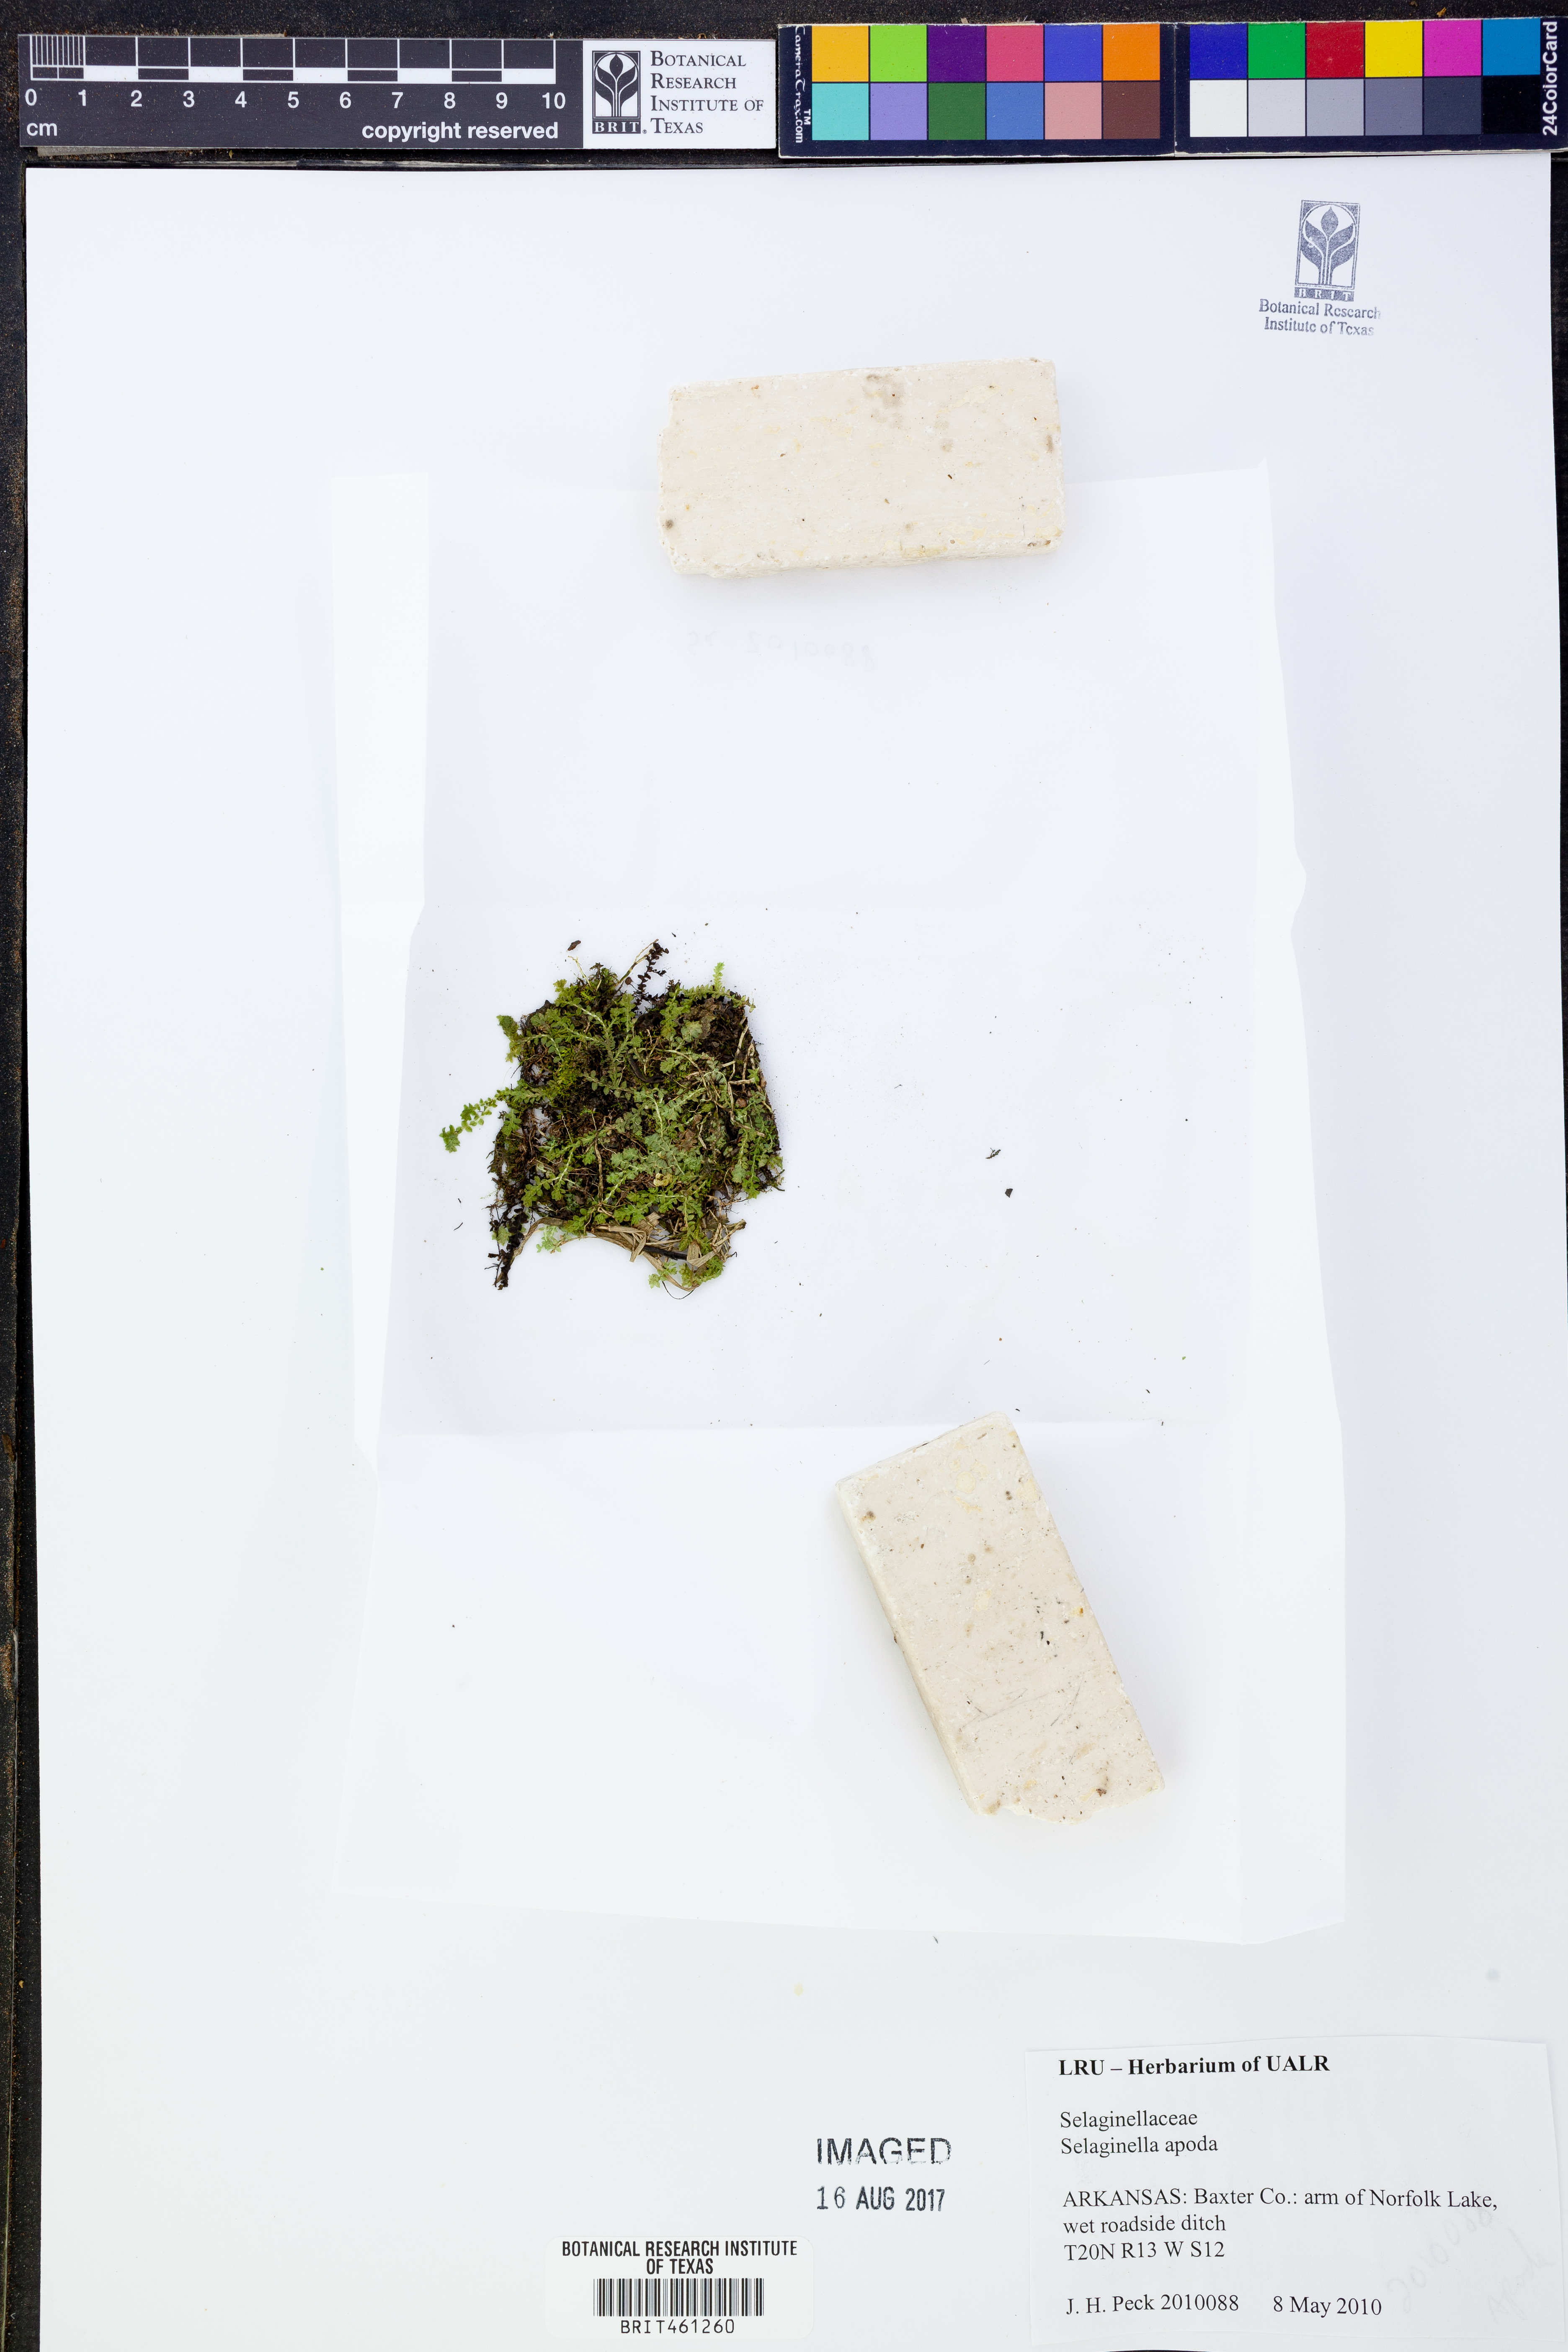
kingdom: Plantae
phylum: Tracheophyta
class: Lycopodiopsida
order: Selaginellales
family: Selaginellaceae
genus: Selaginella
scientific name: Selaginella apoda
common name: Creeping spikemoss
